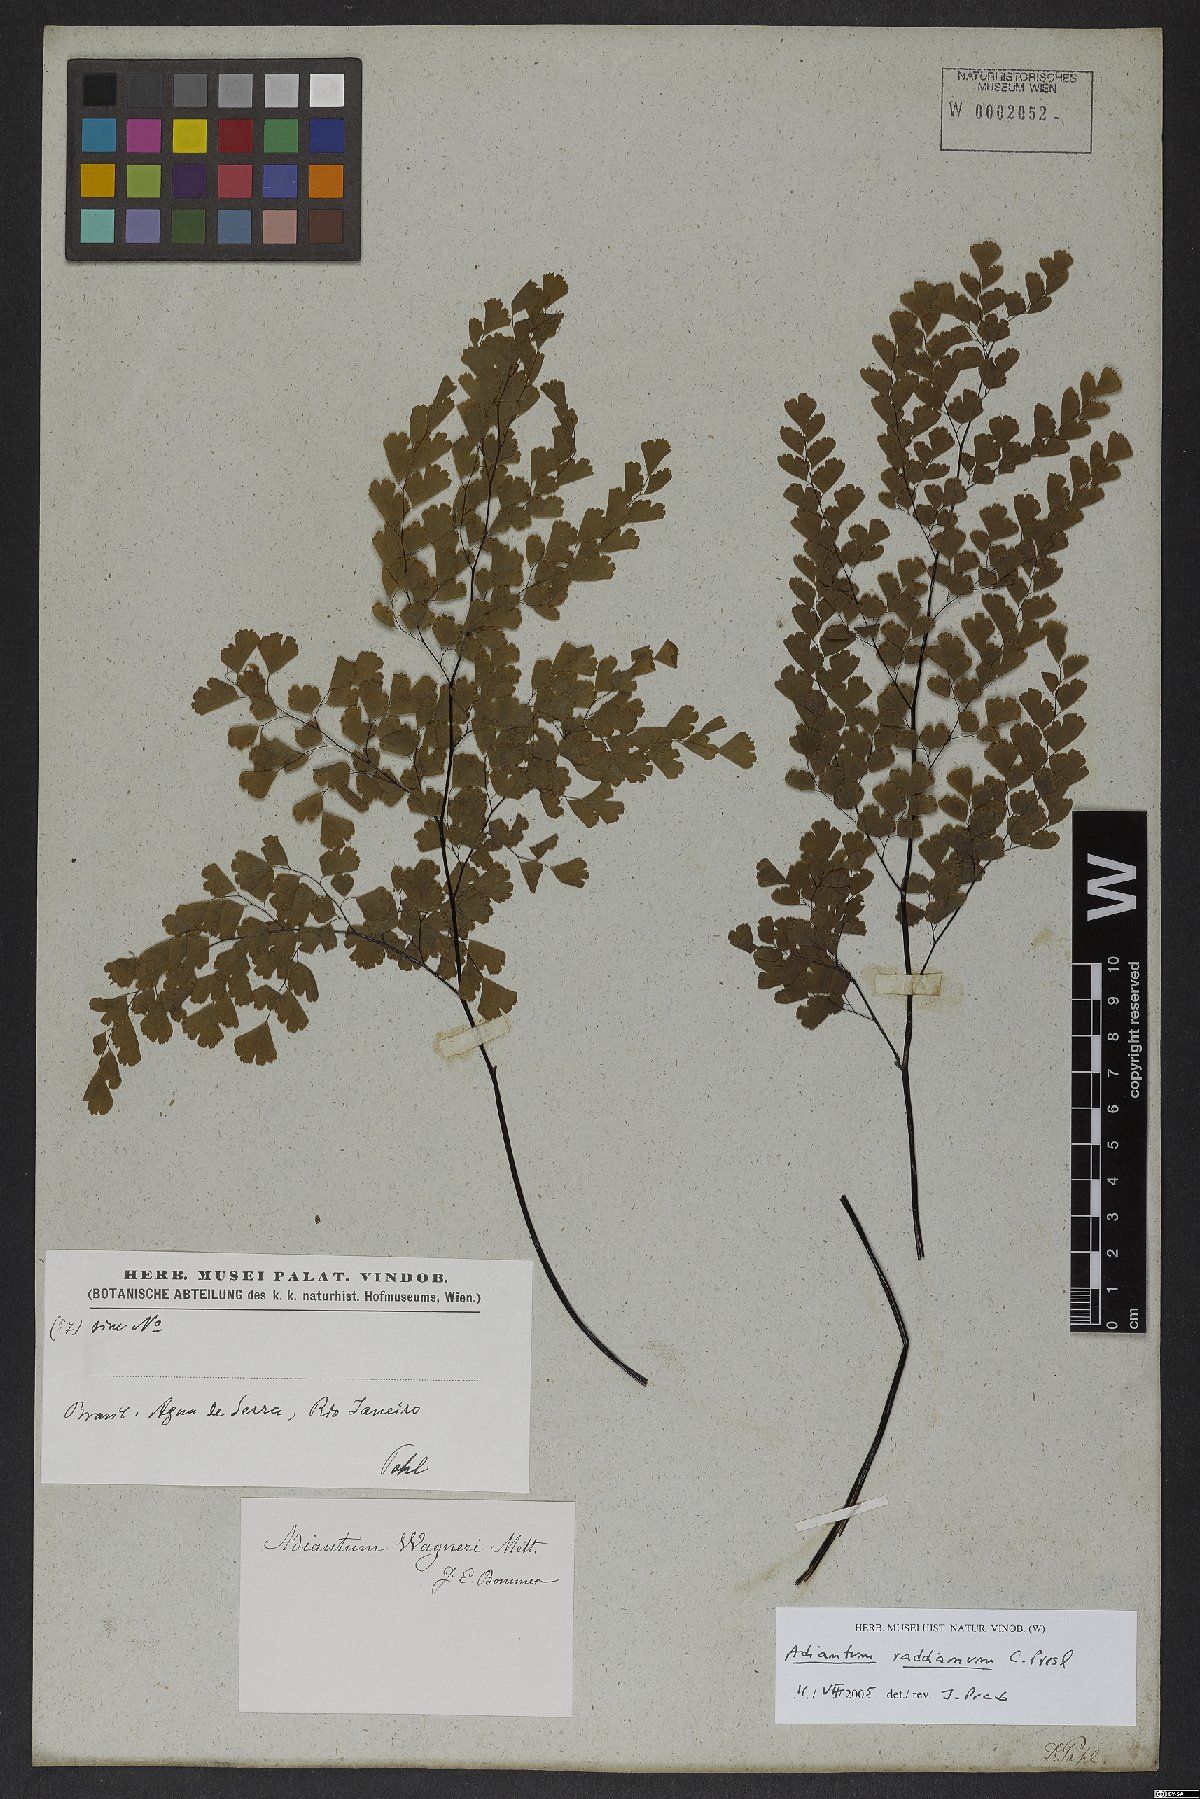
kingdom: Plantae
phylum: Tracheophyta
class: Polypodiopsida
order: Polypodiales
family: Pteridaceae
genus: Adiantum
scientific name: Adiantum raddianum
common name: Delta maidenhair fern
